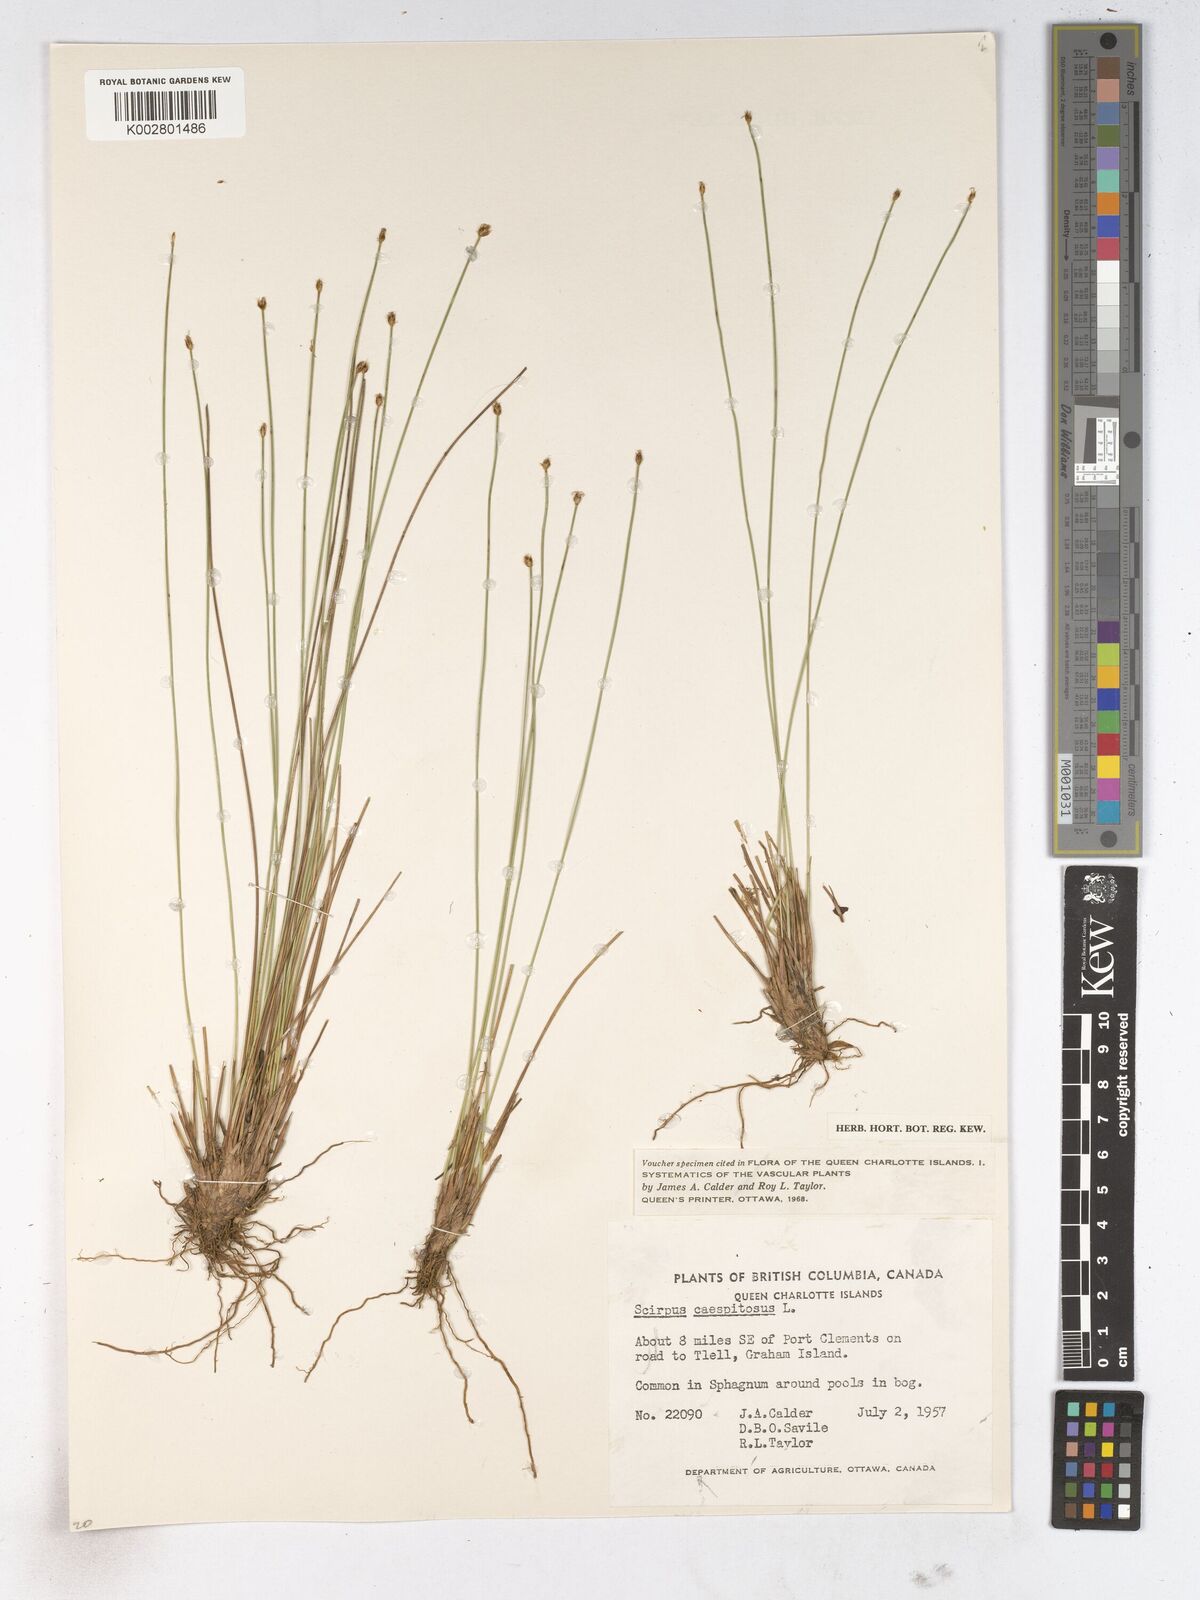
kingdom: Plantae
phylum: Tracheophyta
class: Liliopsida
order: Poales
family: Cyperaceae
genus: Trichophorum
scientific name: Trichophorum cespitosum
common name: Cespitose bulrush
